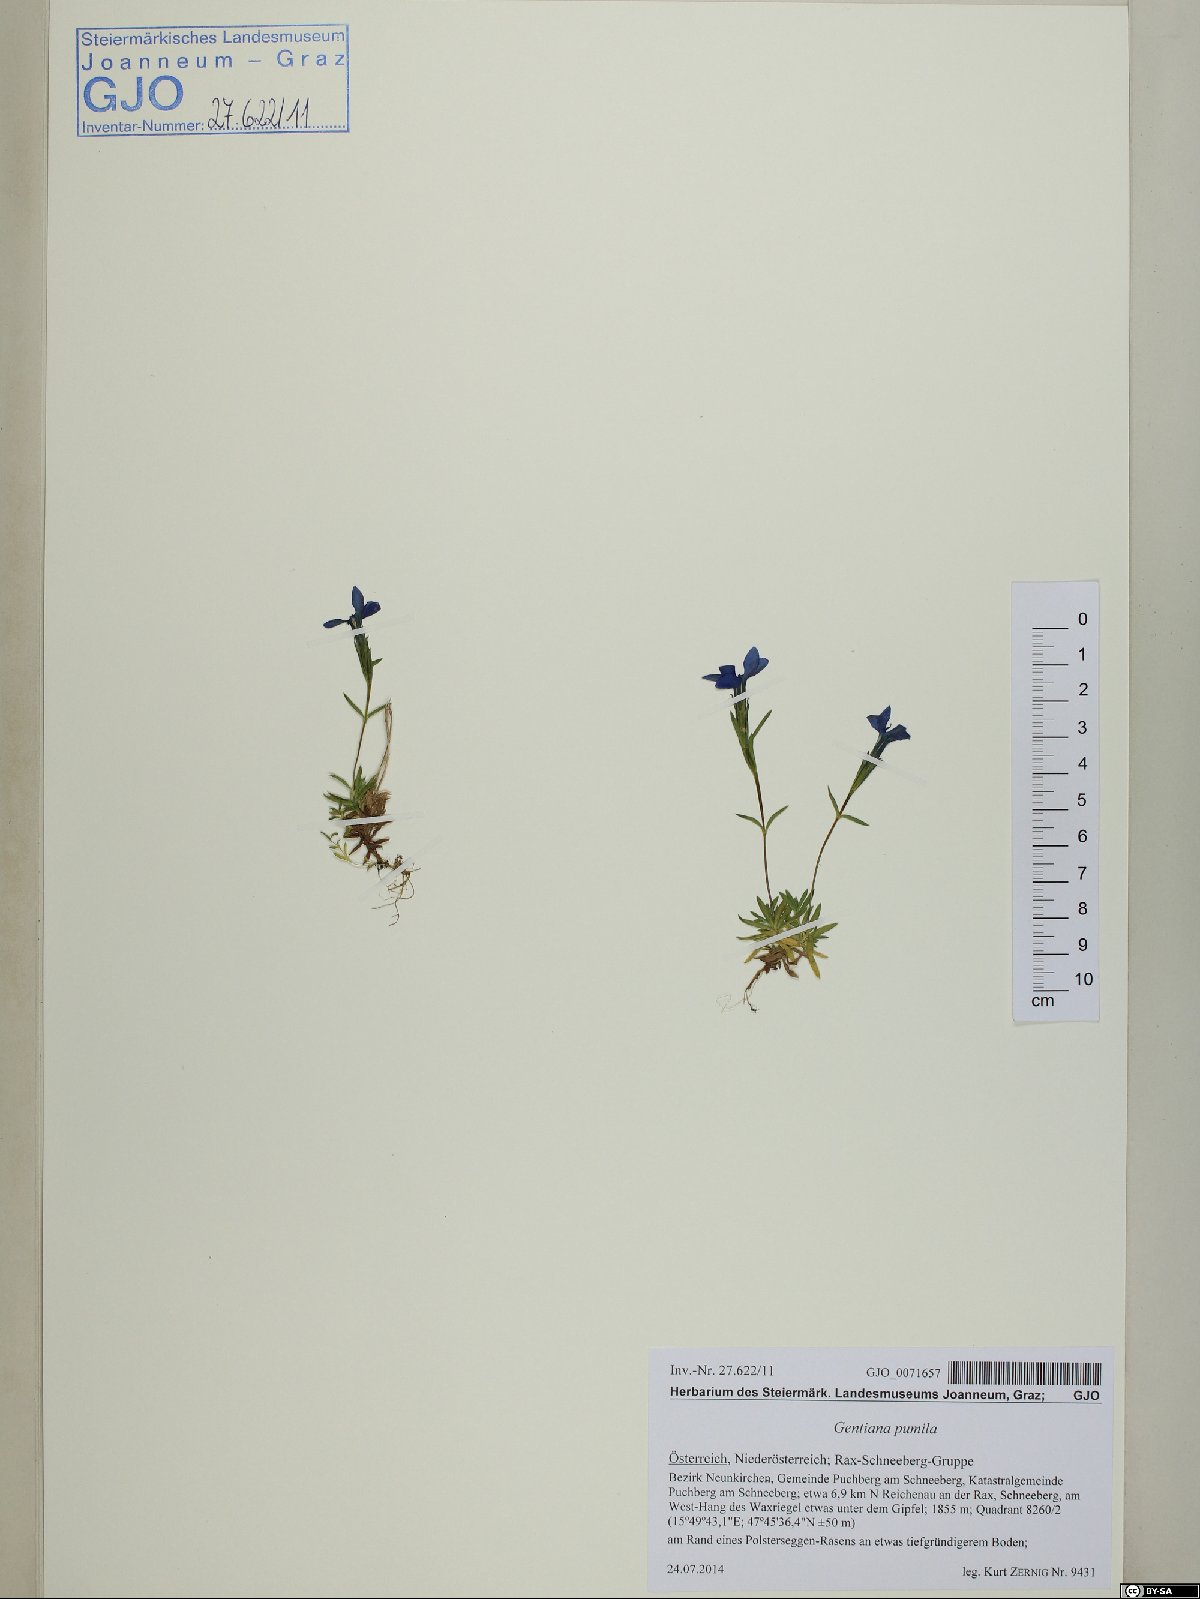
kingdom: Plantae
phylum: Tracheophyta
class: Magnoliopsida
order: Gentianales
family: Gentianaceae
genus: Gentiana
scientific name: Gentiana pumila
